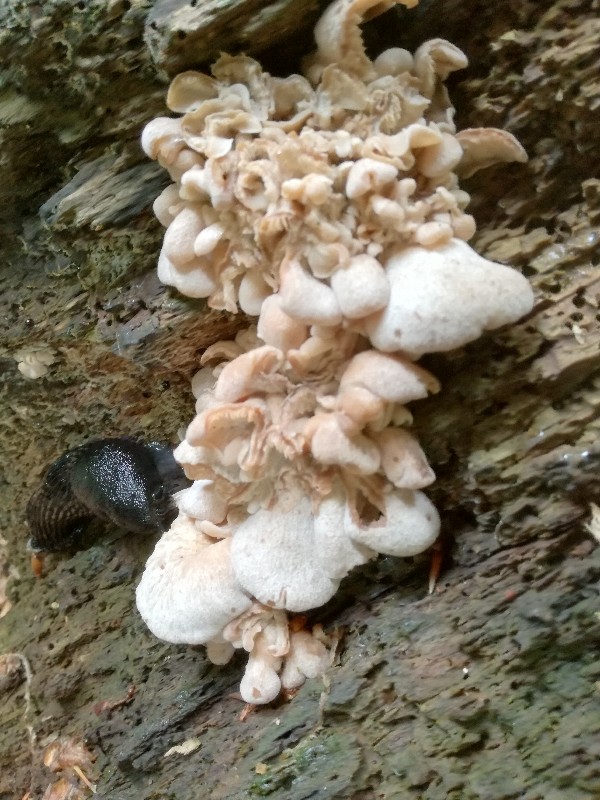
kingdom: Fungi
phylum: Basidiomycota
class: Agaricomycetes
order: Russulales
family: Auriscalpiaceae
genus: Lentinellus
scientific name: Lentinellus ursinus
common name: børstehåret savbladhat
